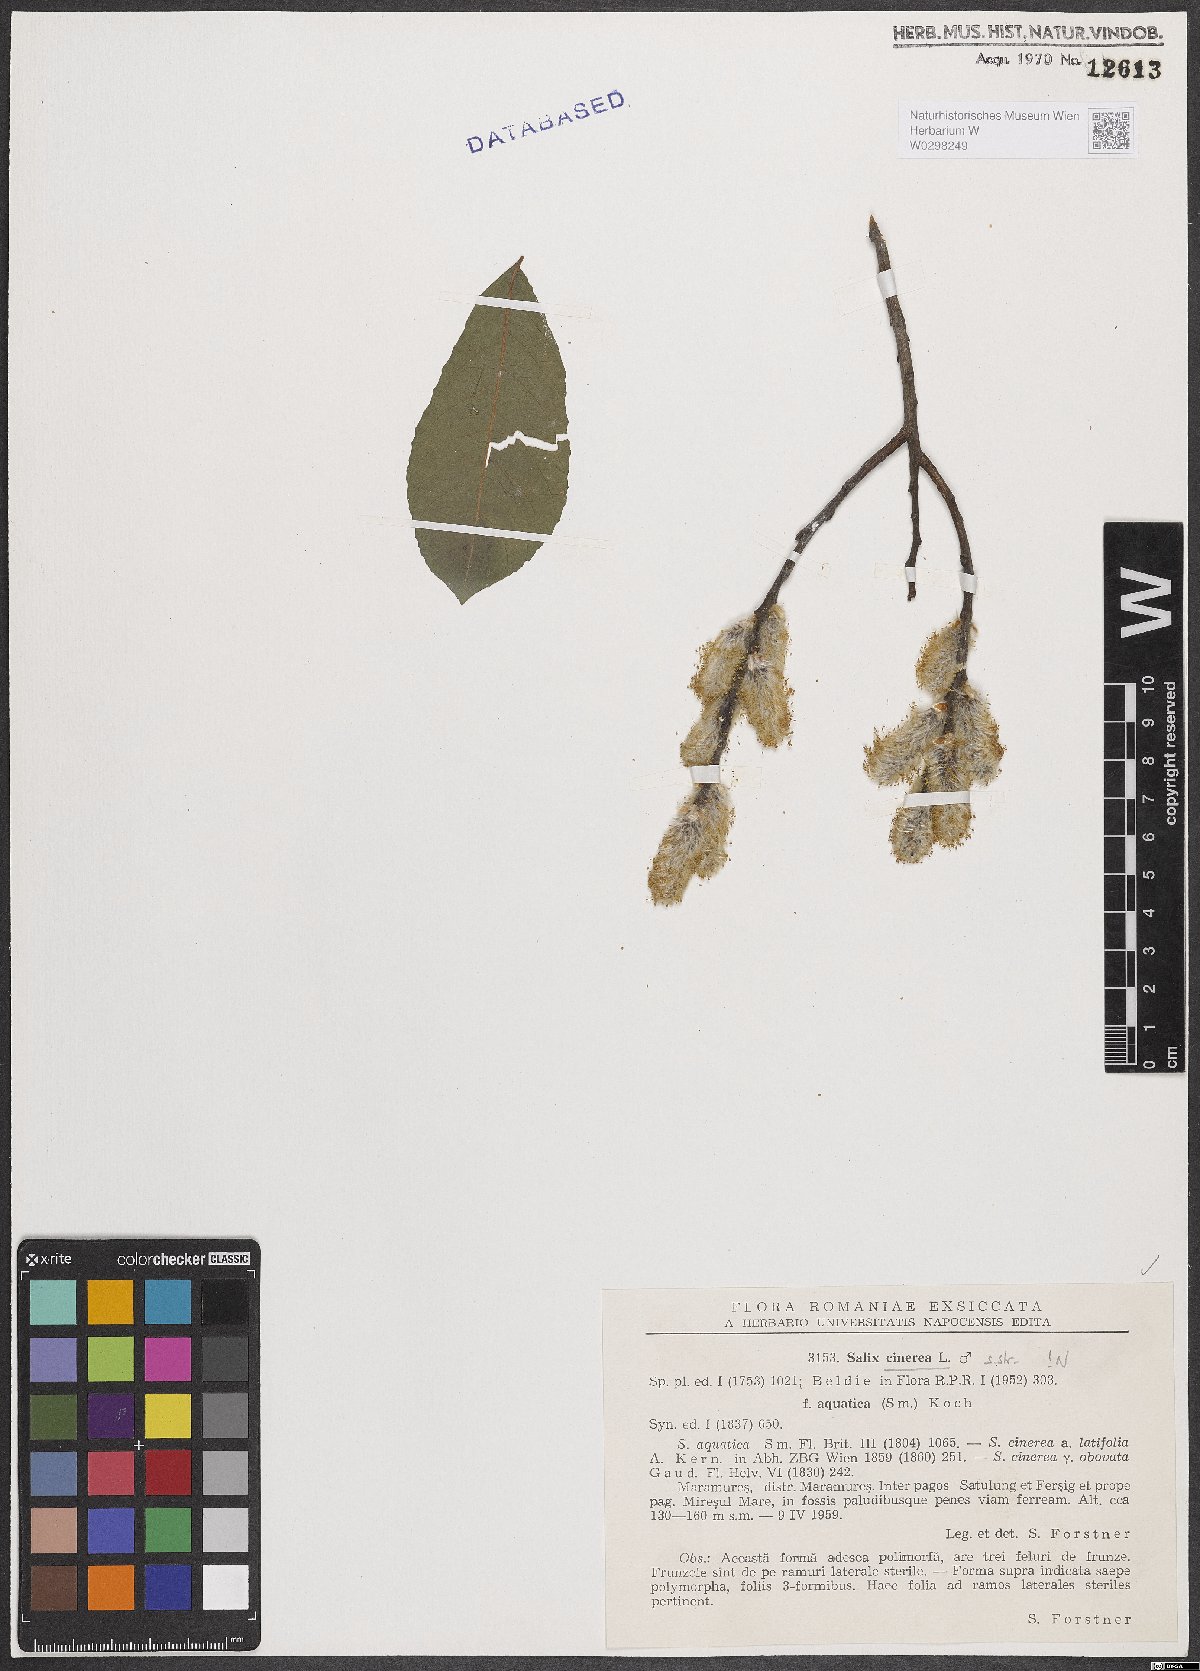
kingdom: Plantae
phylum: Tracheophyta
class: Magnoliopsida
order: Malpighiales
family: Salicaceae
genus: Salix
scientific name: Salix cinerea
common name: Common sallow
